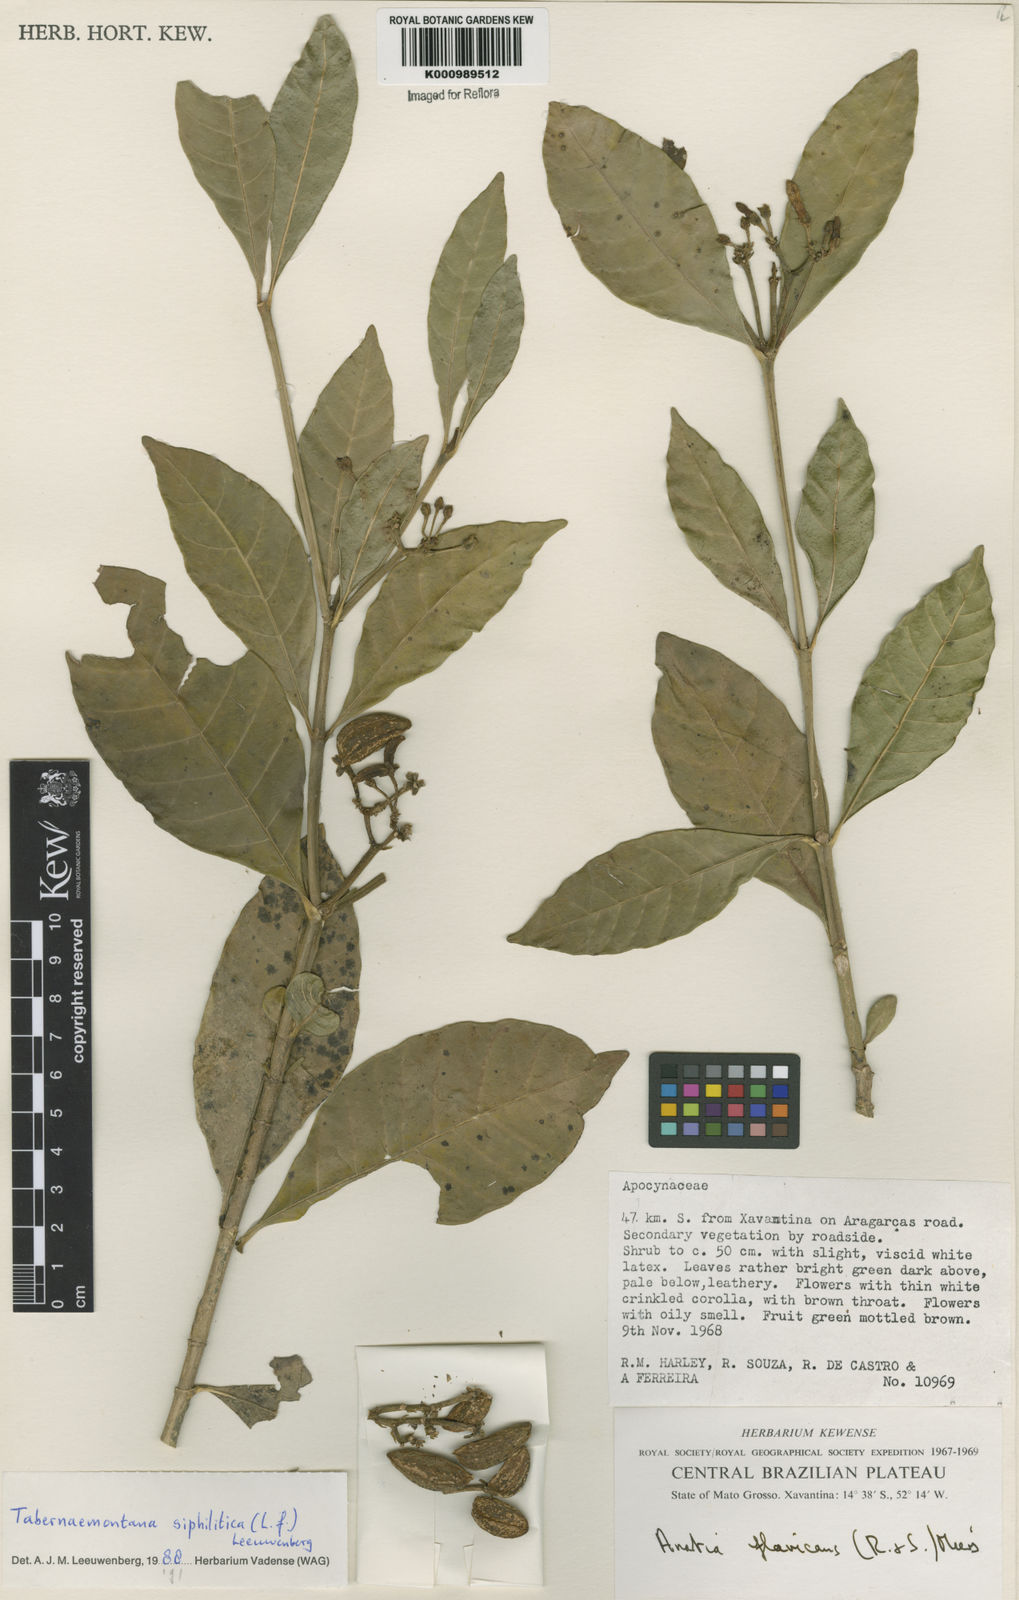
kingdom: Plantae
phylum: Tracheophyta
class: Magnoliopsida
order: Gentianales
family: Apocynaceae
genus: Tabernaemontana
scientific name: Tabernaemontana siphilitica
